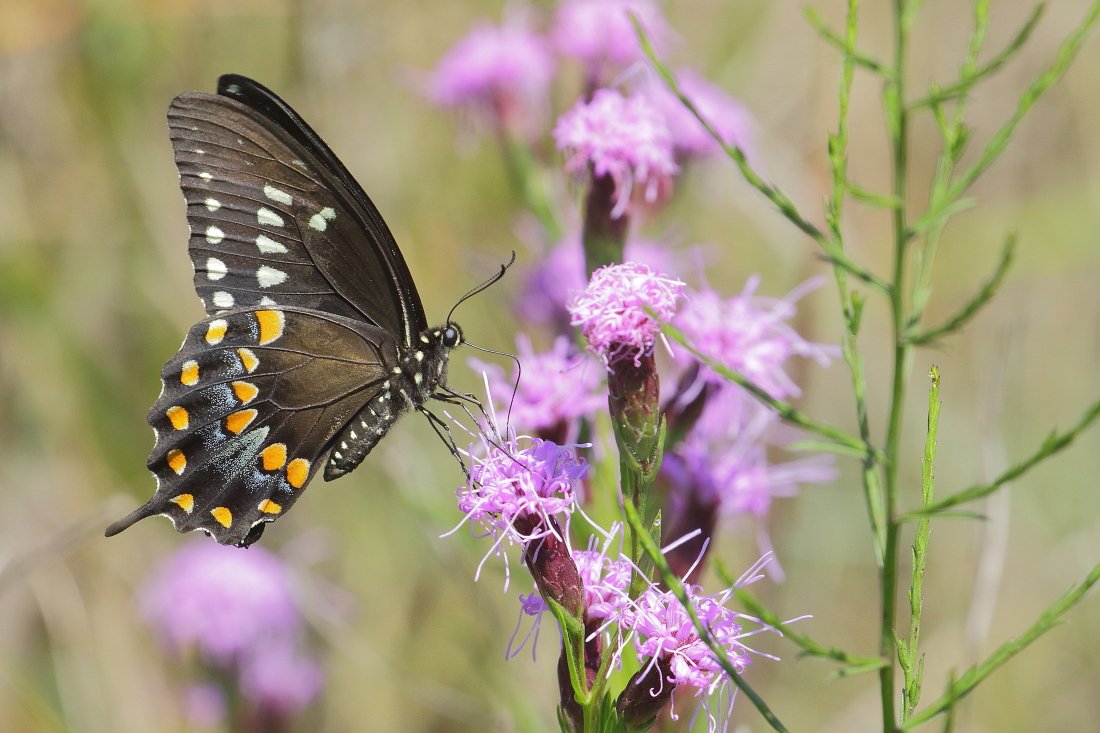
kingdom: Animalia
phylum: Arthropoda
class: Insecta
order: Lepidoptera
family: Papilionidae
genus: Pterourus
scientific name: Pterourus troilus
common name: Spicebush Swallowtail
